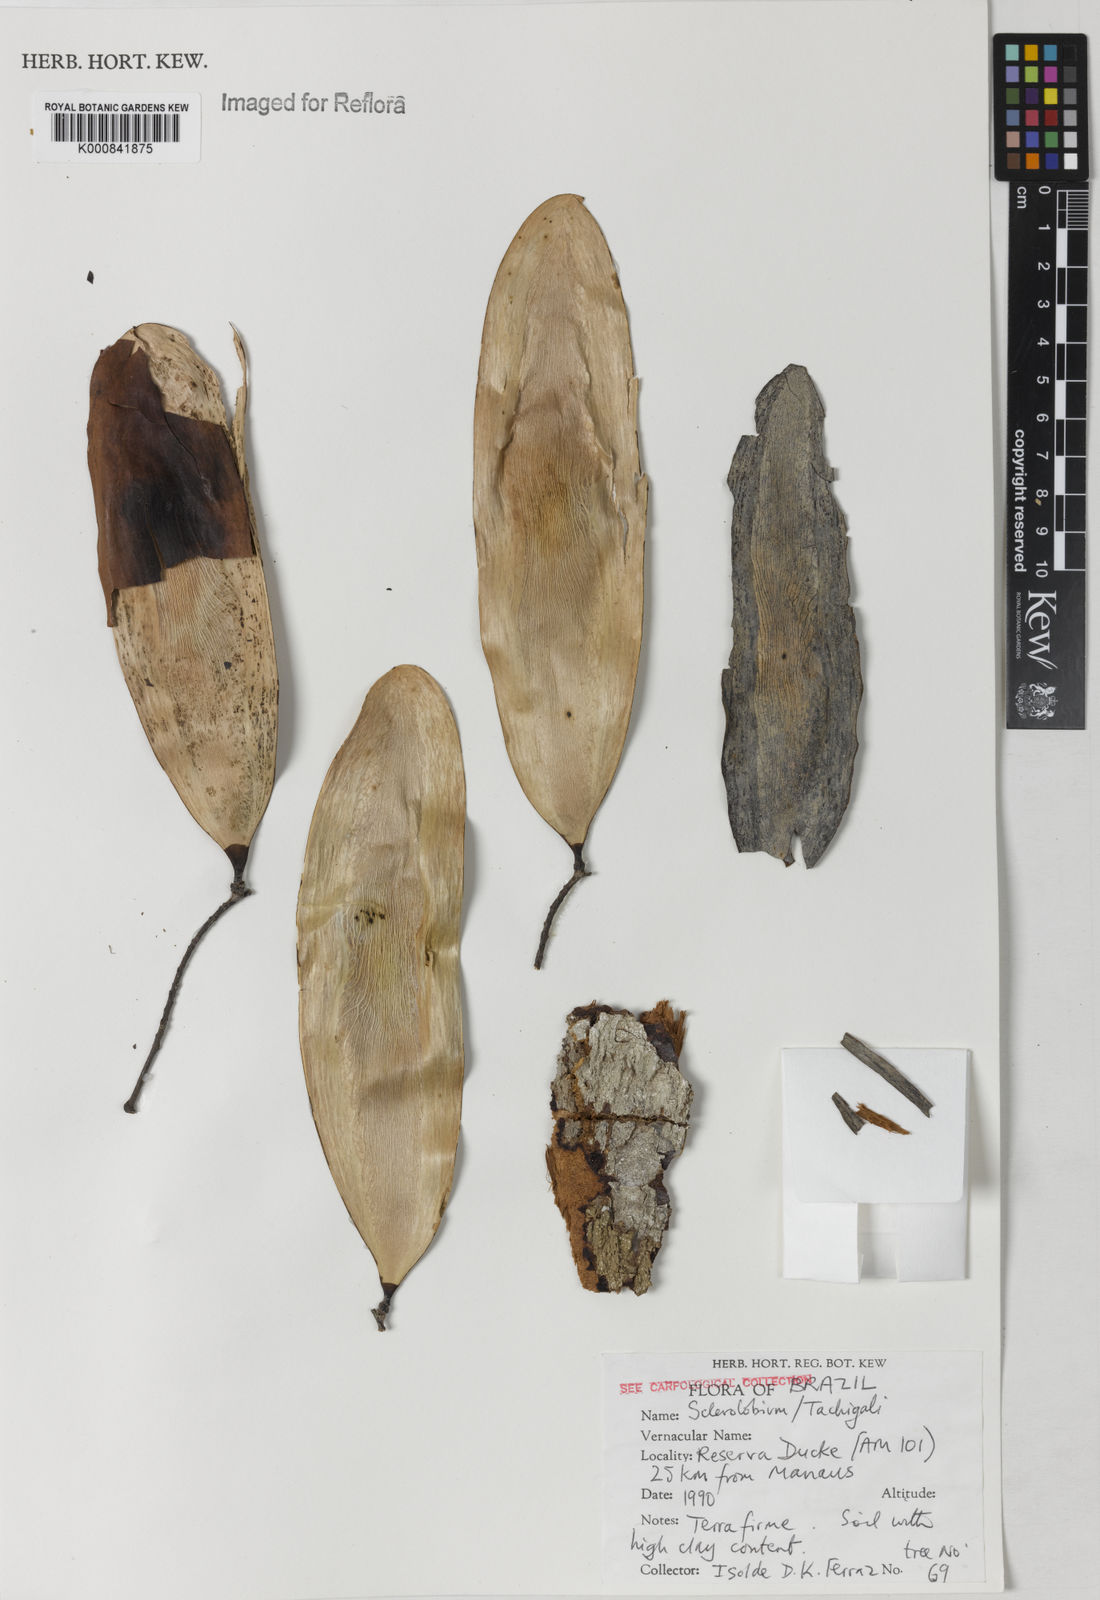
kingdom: Plantae
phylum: Tracheophyta
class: Magnoliopsida
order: Fabales
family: Fabaceae
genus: Tachigali
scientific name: Tachigali
